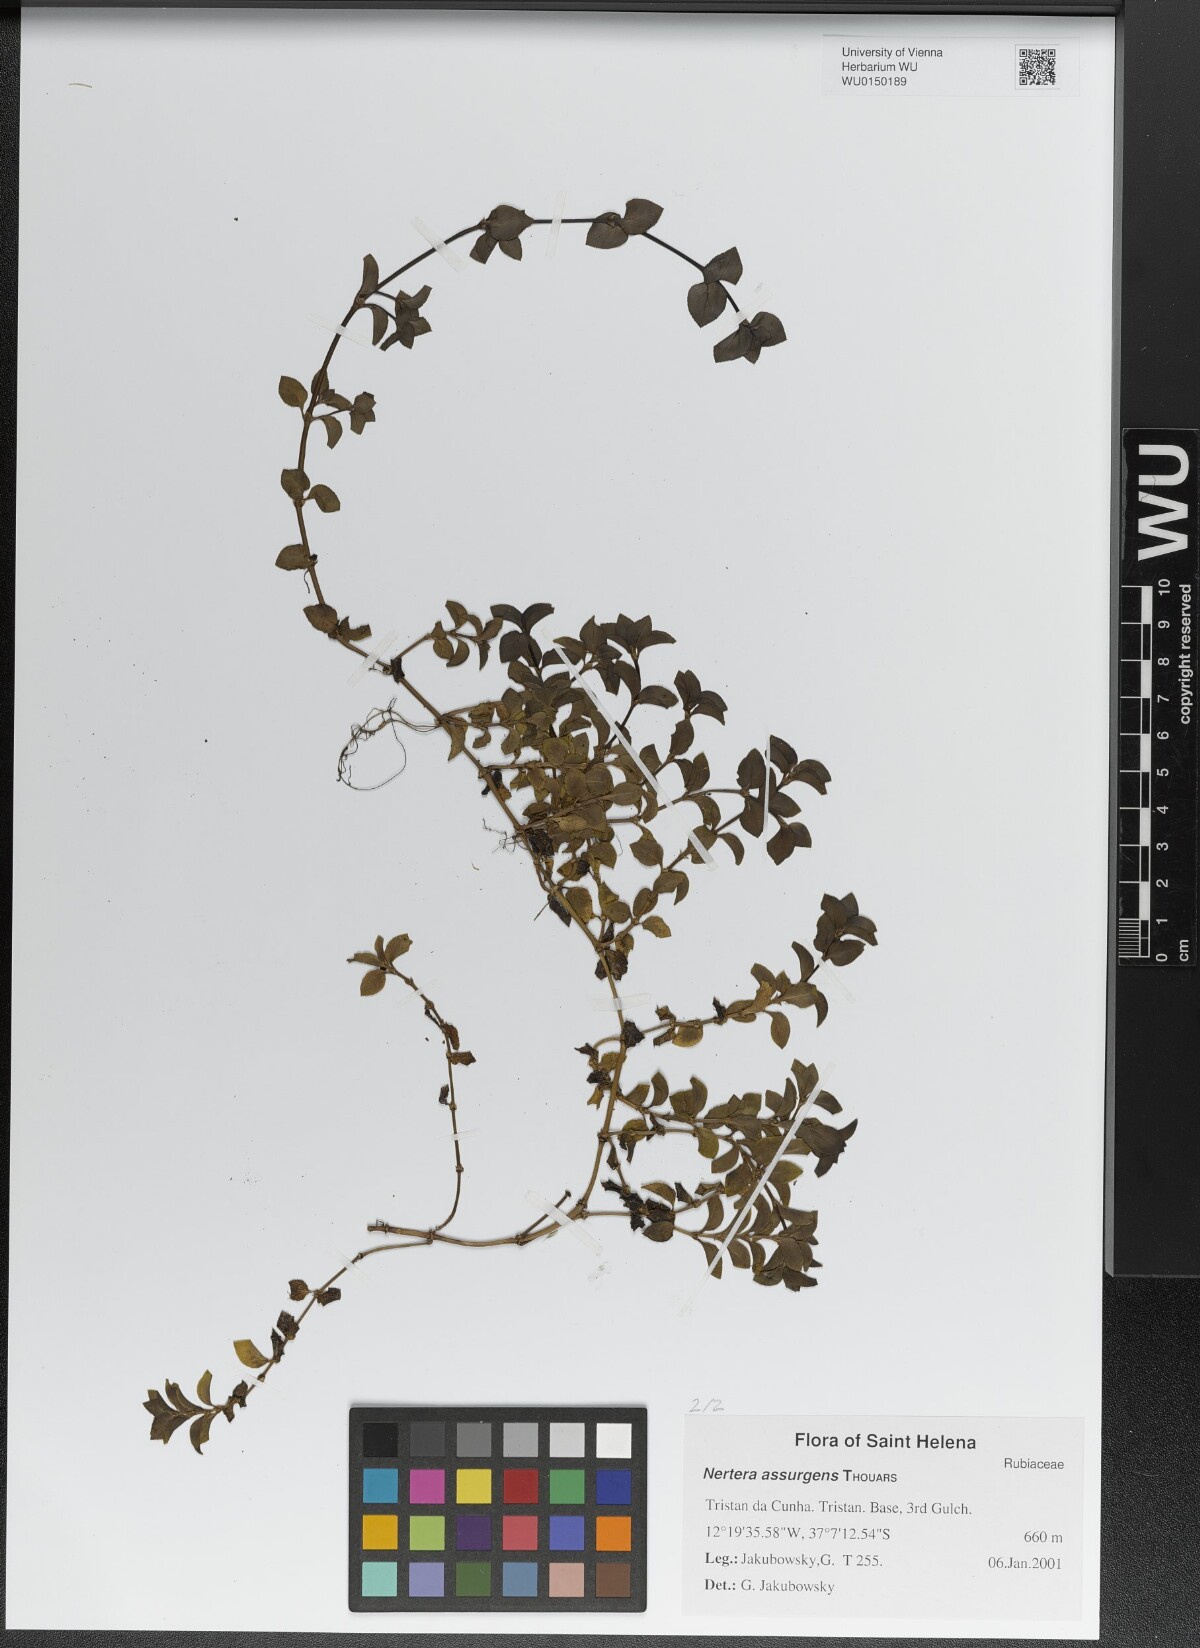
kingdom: Plantae
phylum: Tracheophyta
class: Magnoliopsida
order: Gentianales
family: Rubiaceae
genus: Nertera
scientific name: Nertera granadensis
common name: Beadplant
